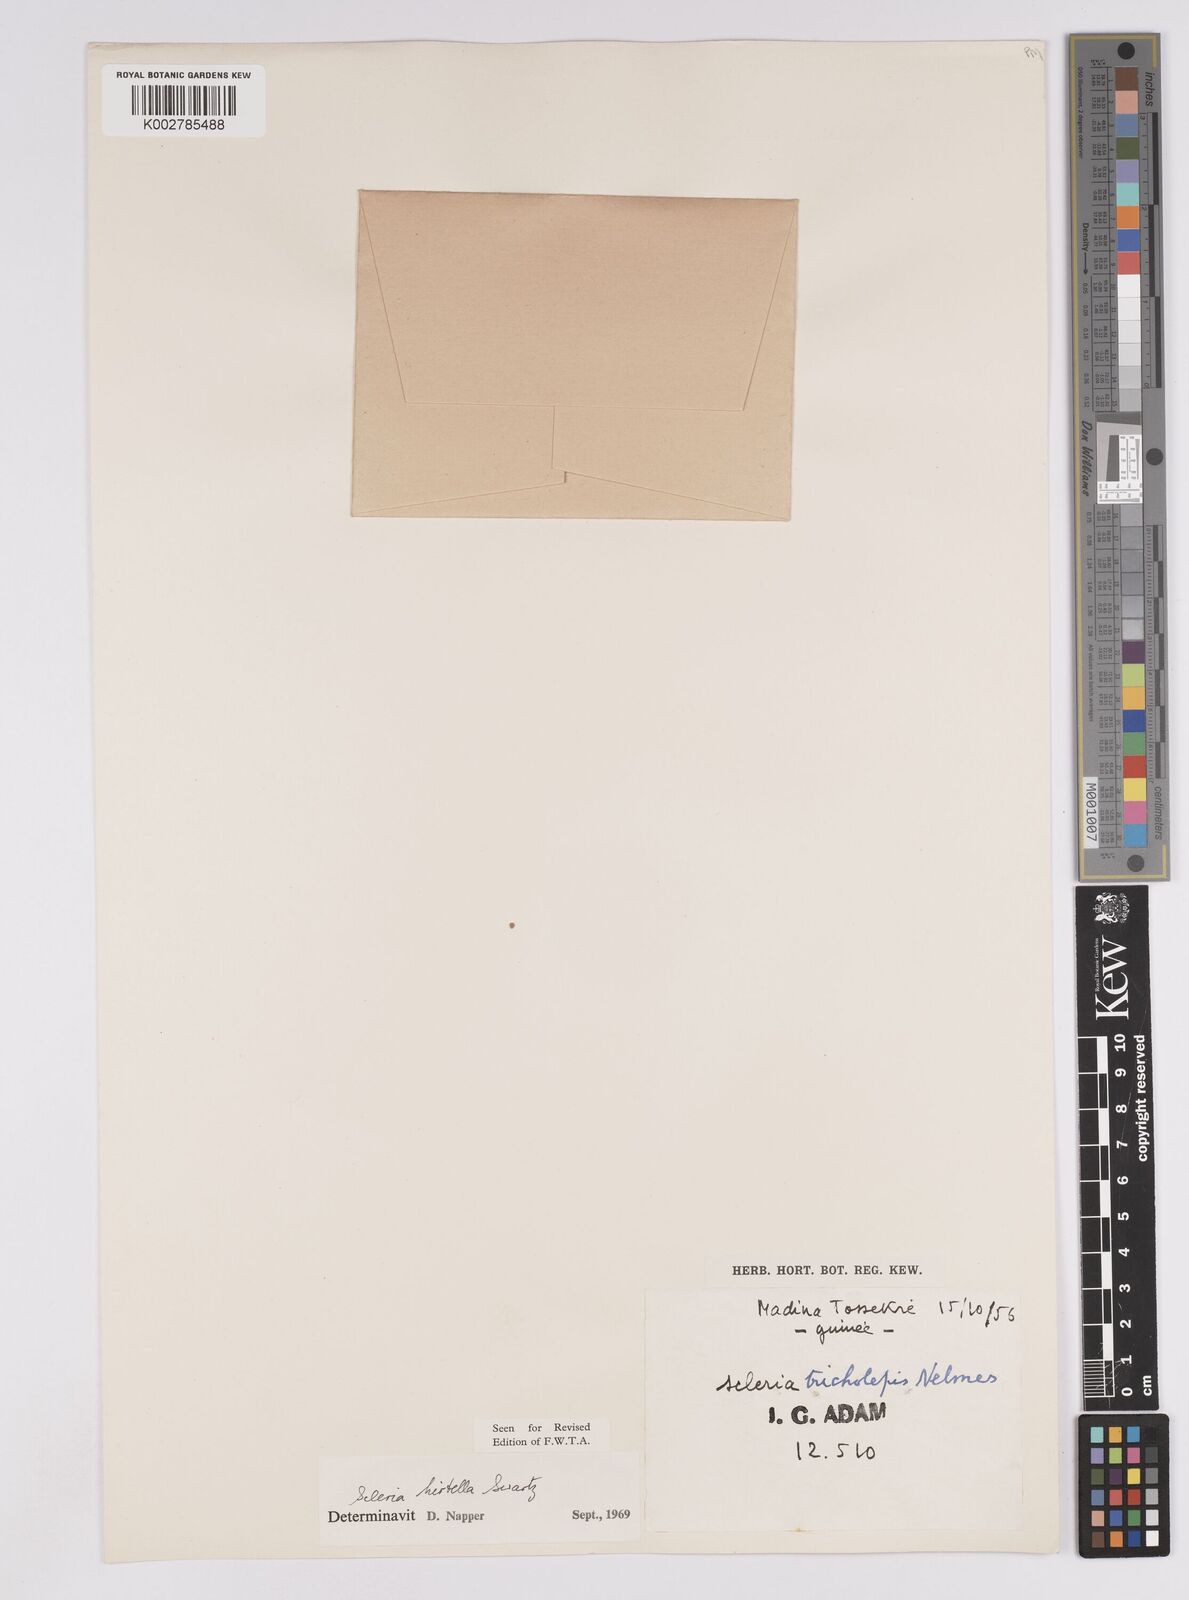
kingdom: Plantae
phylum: Tracheophyta
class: Liliopsida
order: Poales
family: Cyperaceae
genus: Scleria
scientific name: Scleria tricholepis
